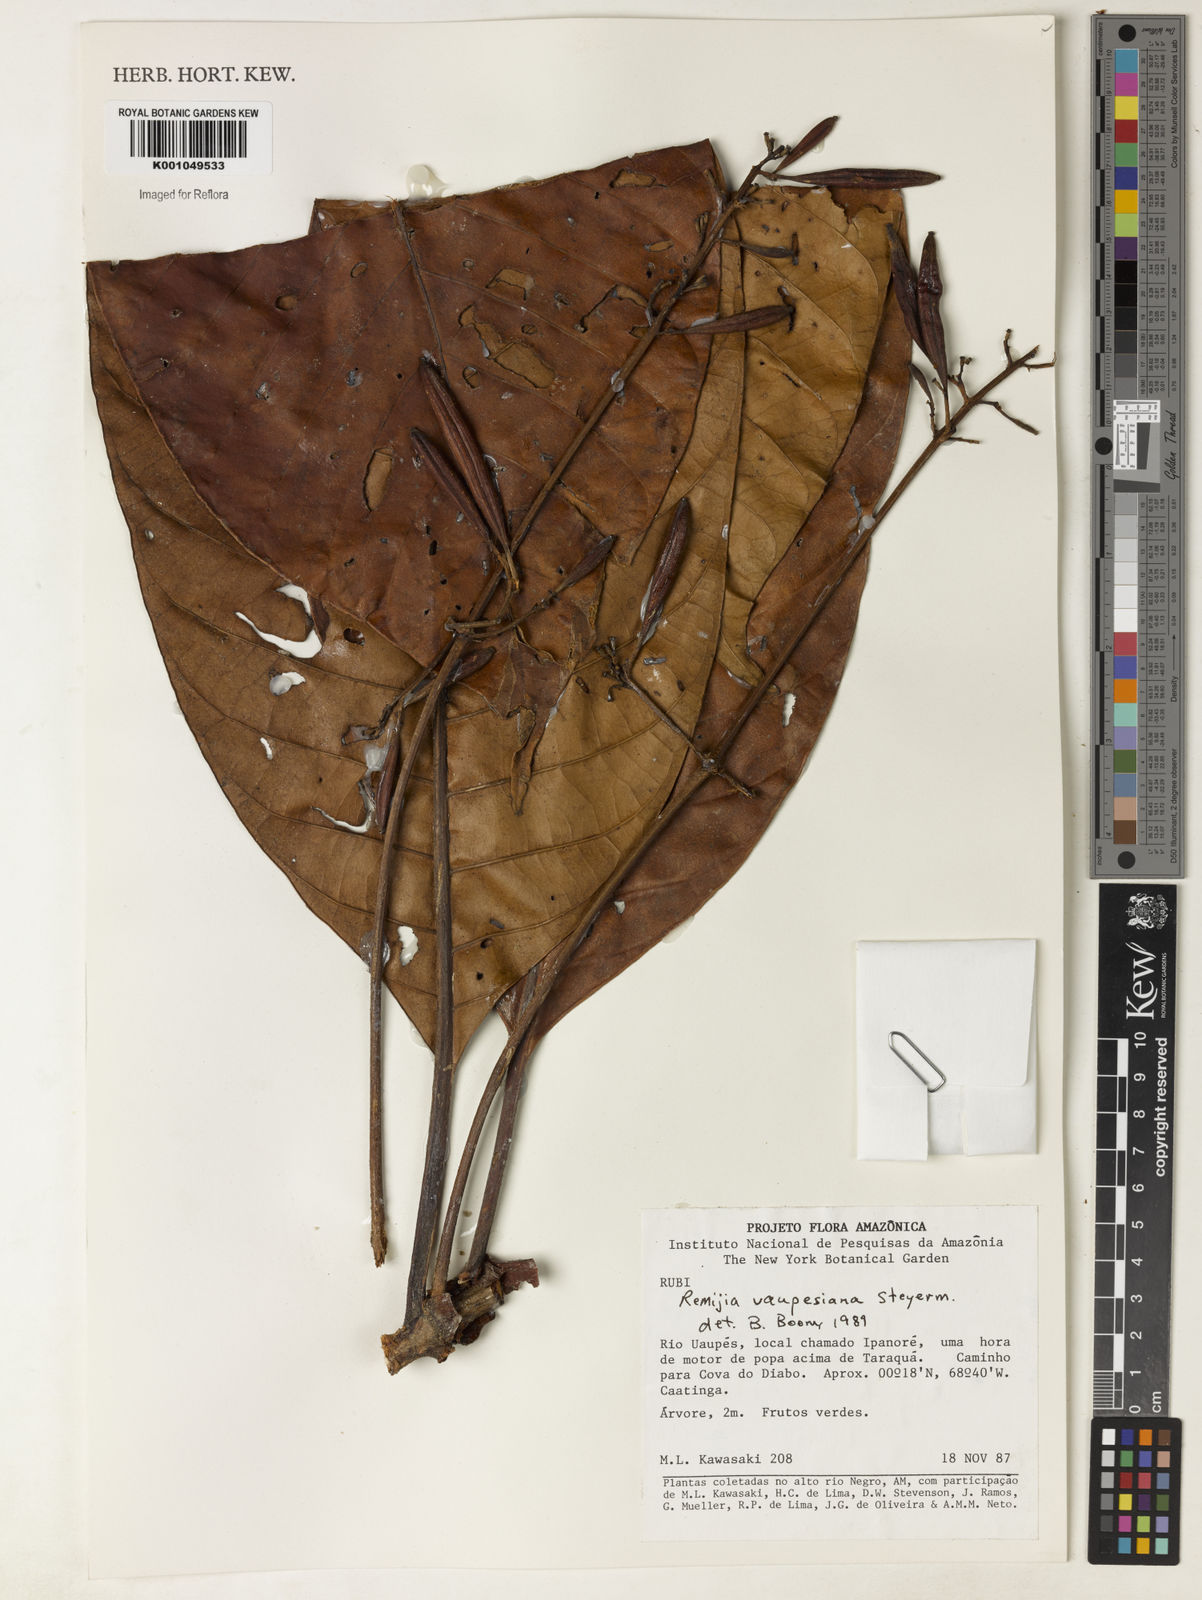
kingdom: Plantae
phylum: Tracheophyta
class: Magnoliopsida
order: Gentianales
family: Rubiaceae
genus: Remijia
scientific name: Remijia vaupesiana
